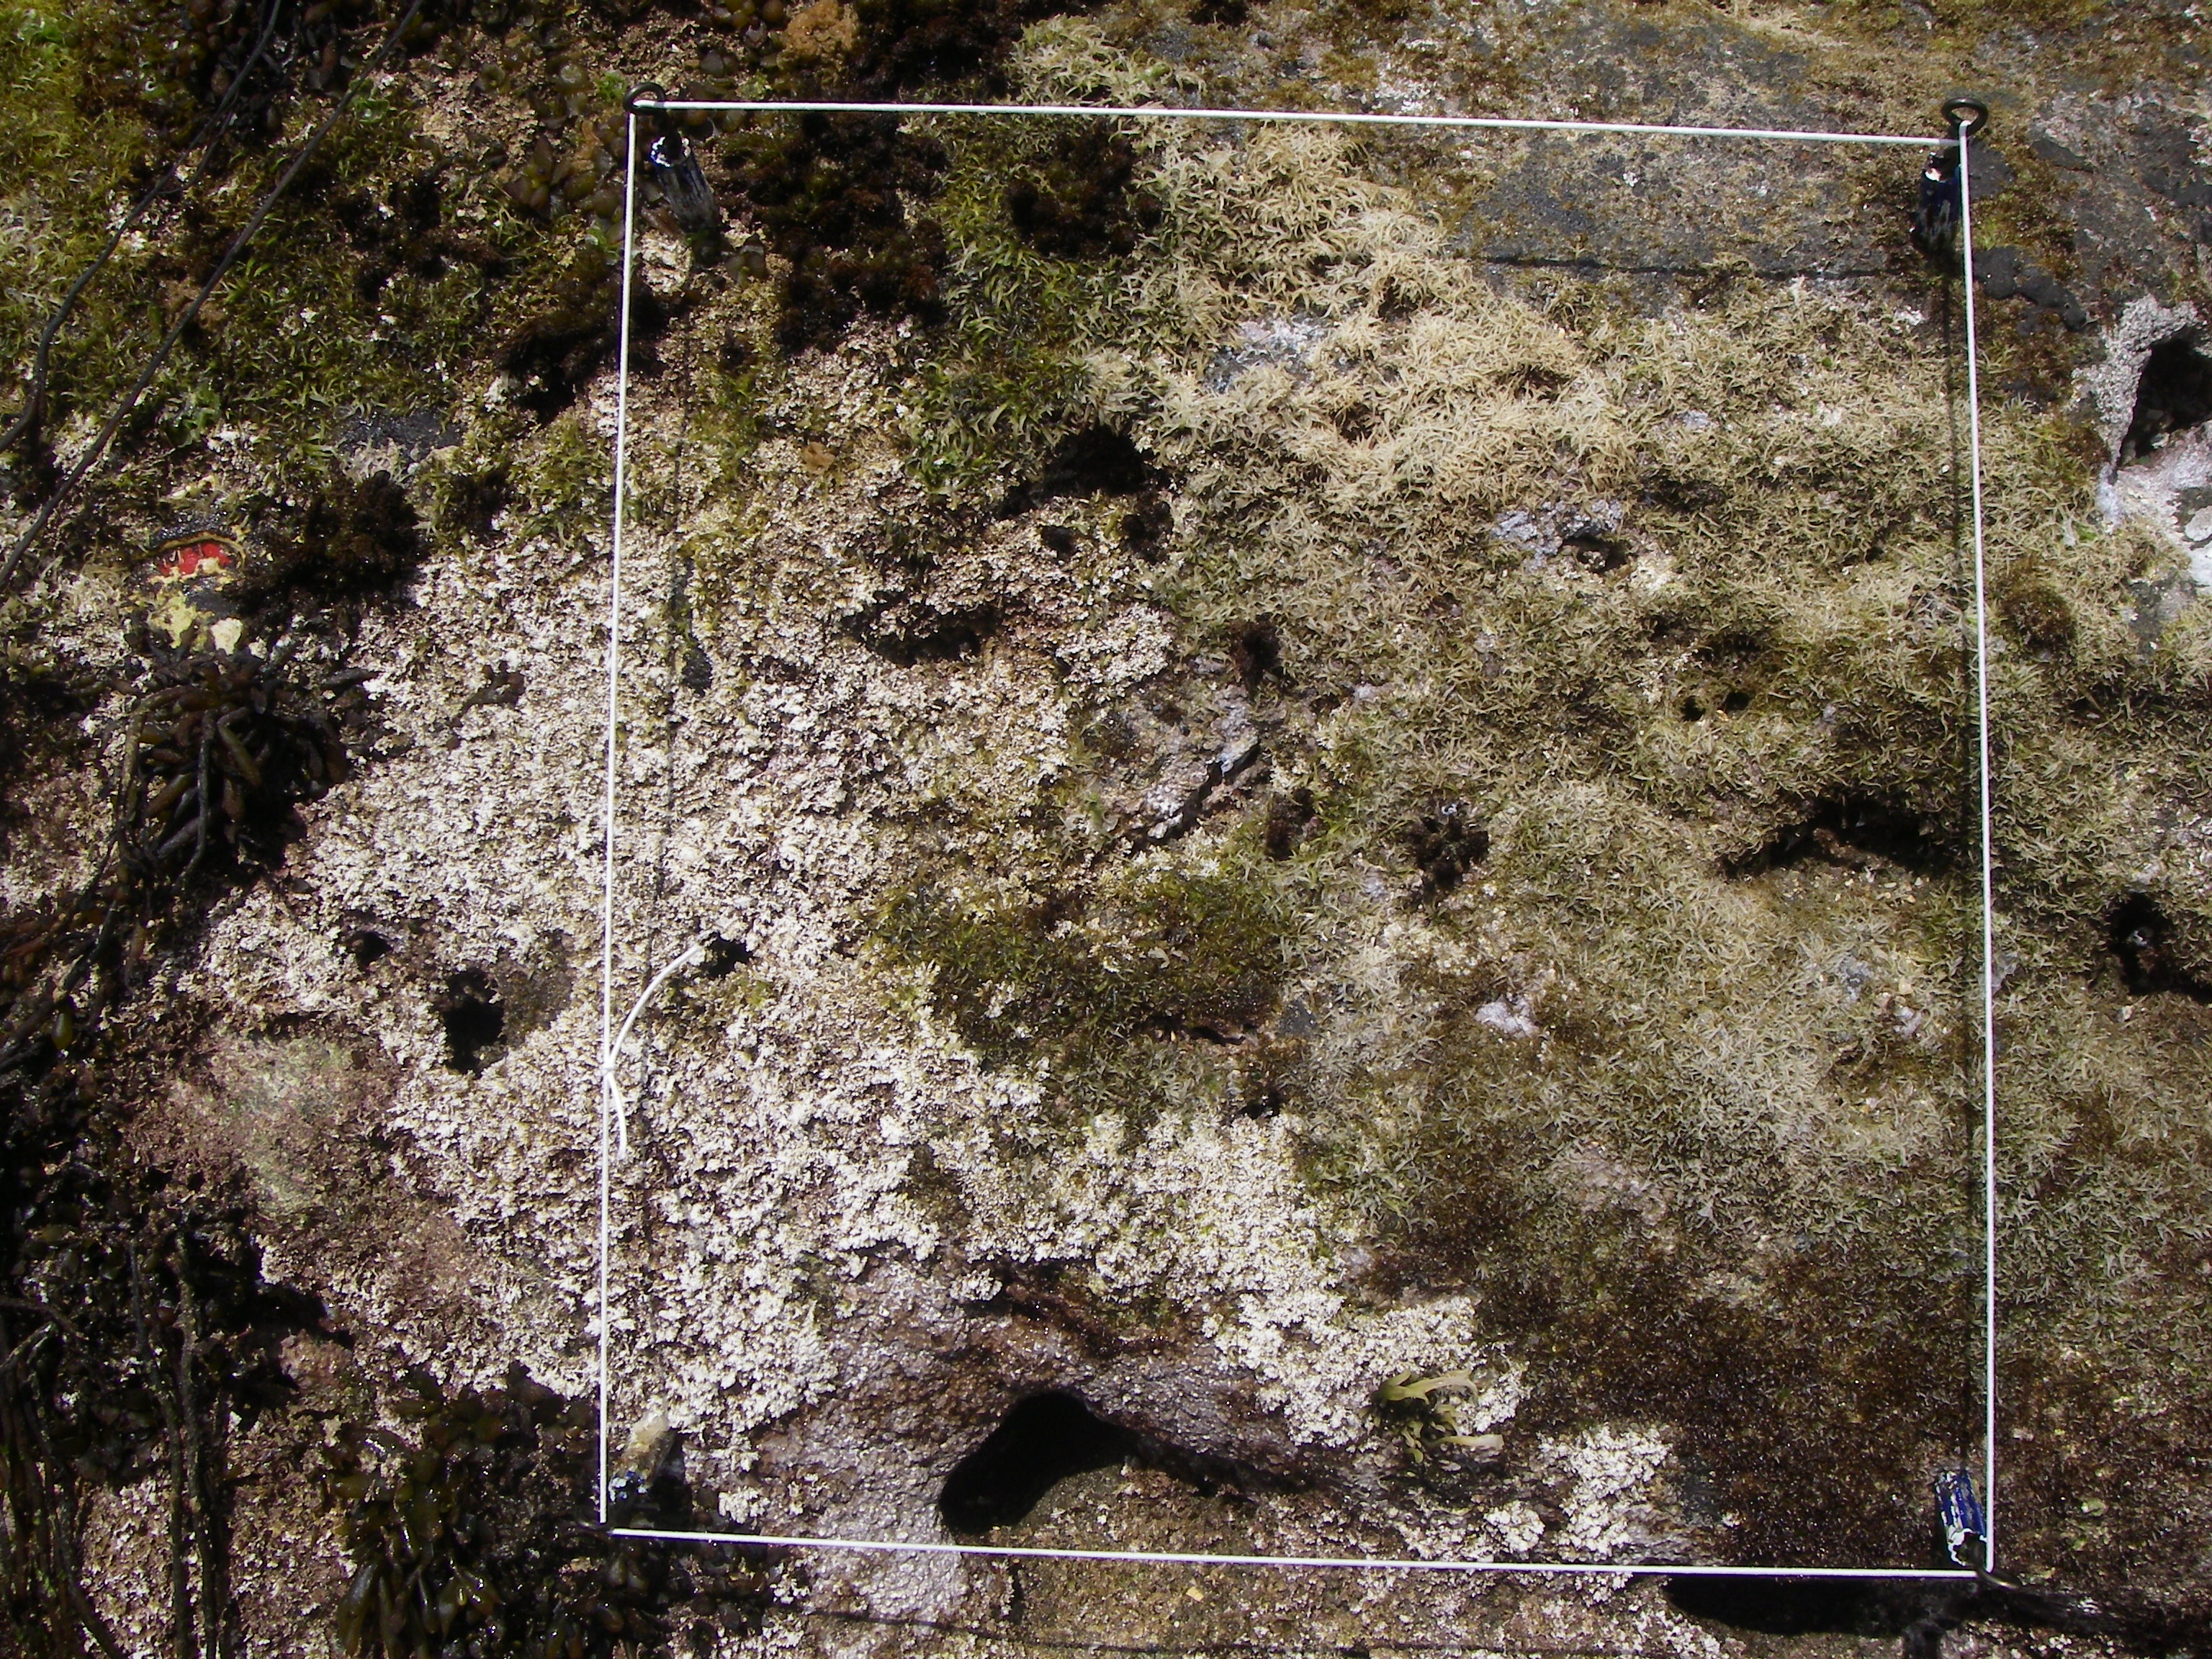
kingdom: Chromista
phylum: Ochrophyta
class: Phaeophyceae
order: Fucales
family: Sargassaceae
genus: Sargassum
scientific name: Sargassum fusiforme
